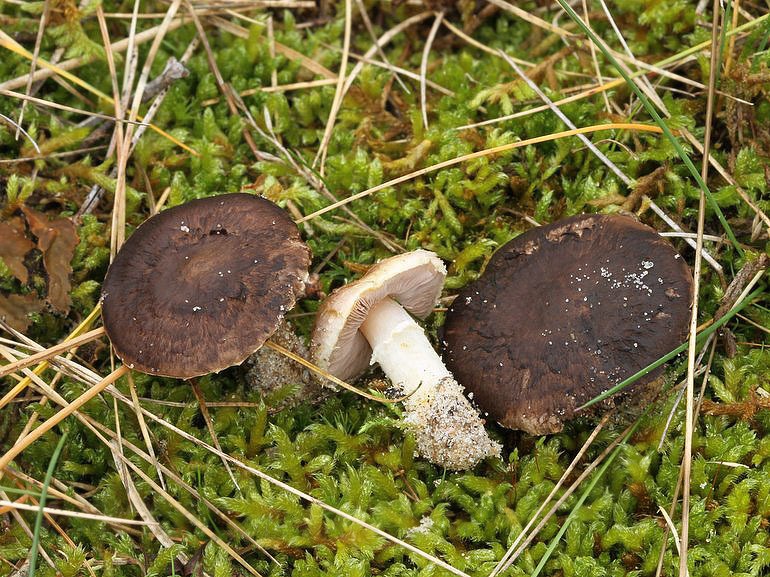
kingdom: Fungi
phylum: Basidiomycota
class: Agaricomycetes
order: Agaricales
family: Agaricaceae
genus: Agaricus
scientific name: Agaricus cupreobrunneus
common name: kobberbrun champignon
